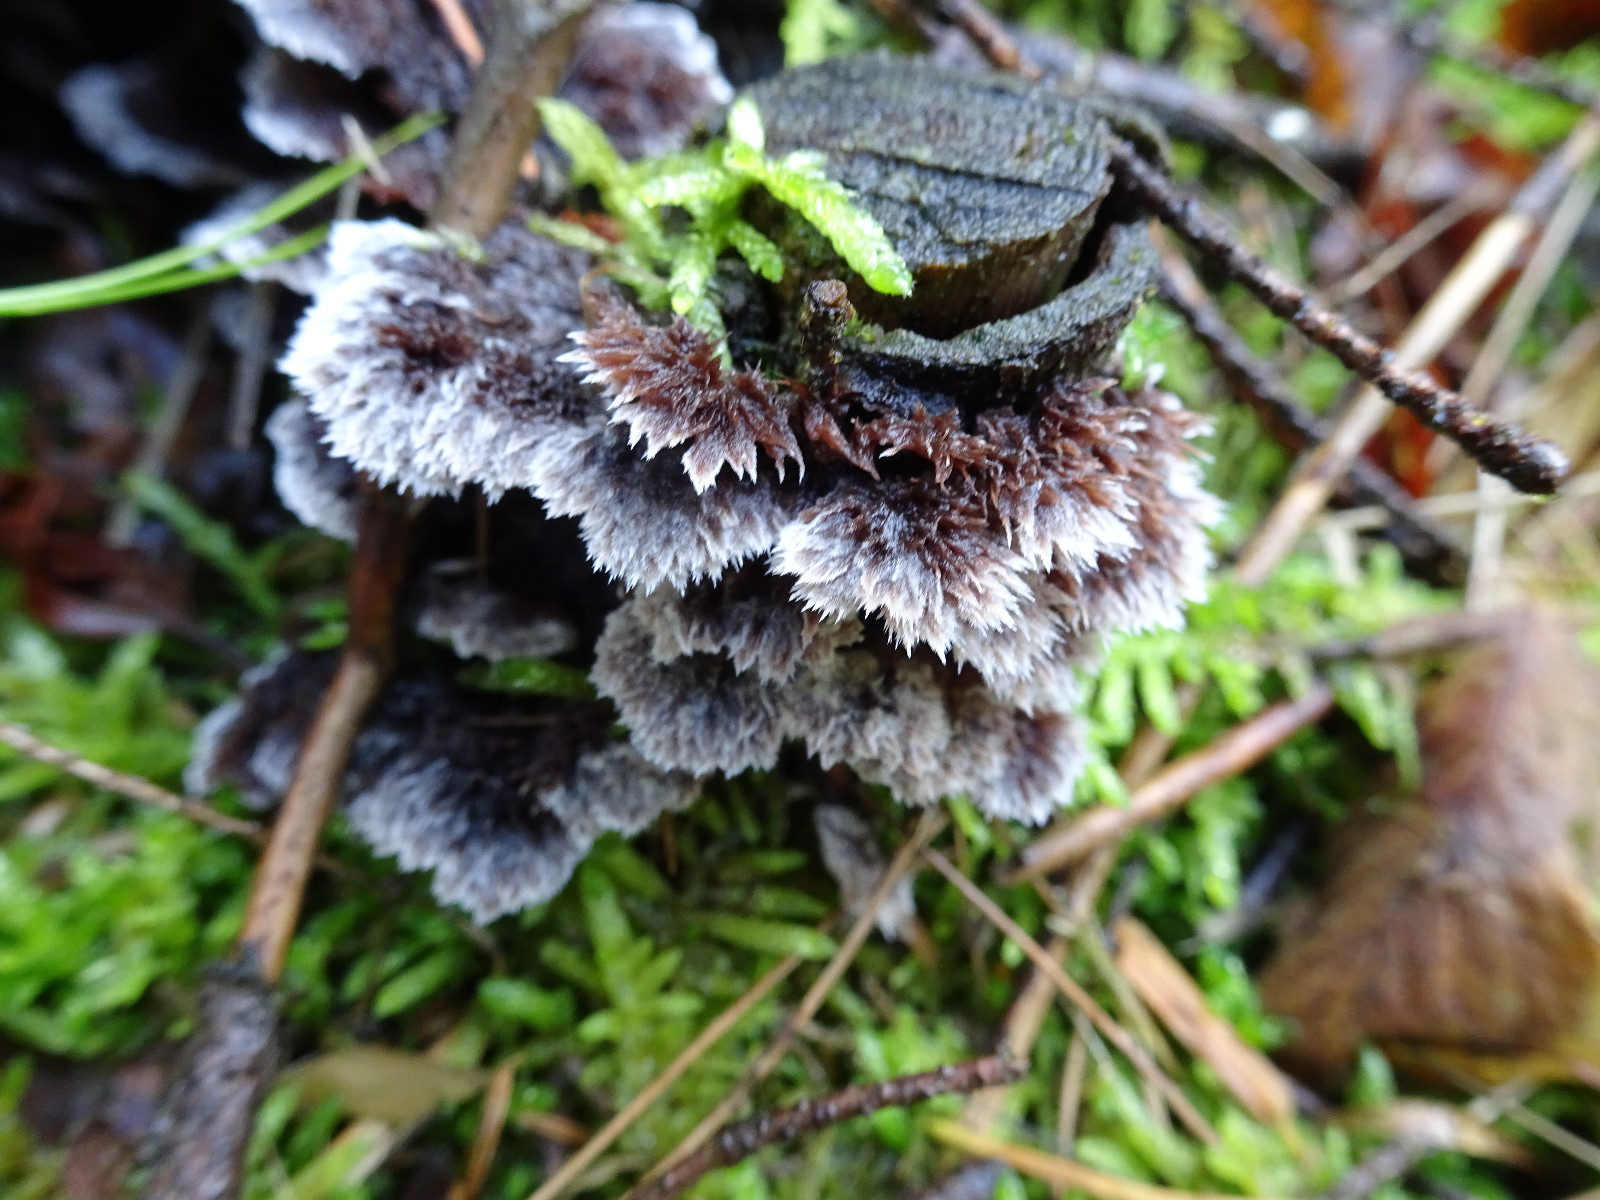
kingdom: Fungi
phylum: Basidiomycota
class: Agaricomycetes
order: Thelephorales
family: Thelephoraceae
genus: Thelephora
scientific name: Thelephora terrestris
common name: fliget frynsesvamp
